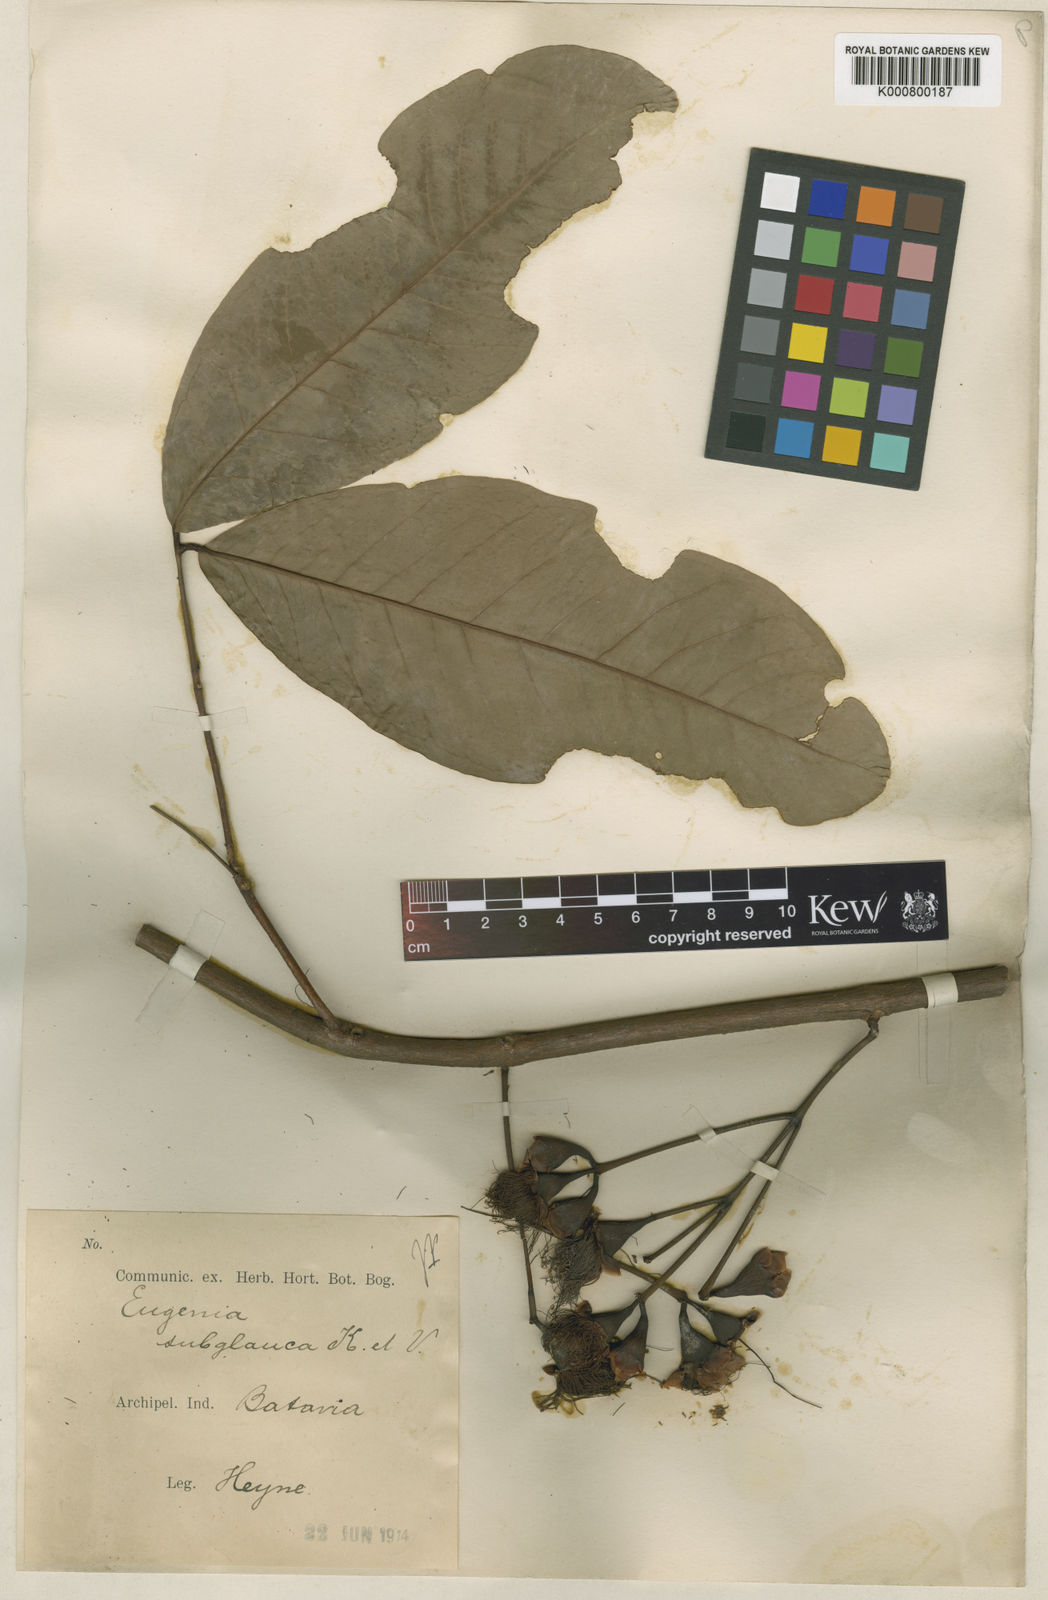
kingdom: Plantae
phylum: Tracheophyta
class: Magnoliopsida
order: Myrtales
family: Myrtaceae
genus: Syzygium
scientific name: Syzygium
